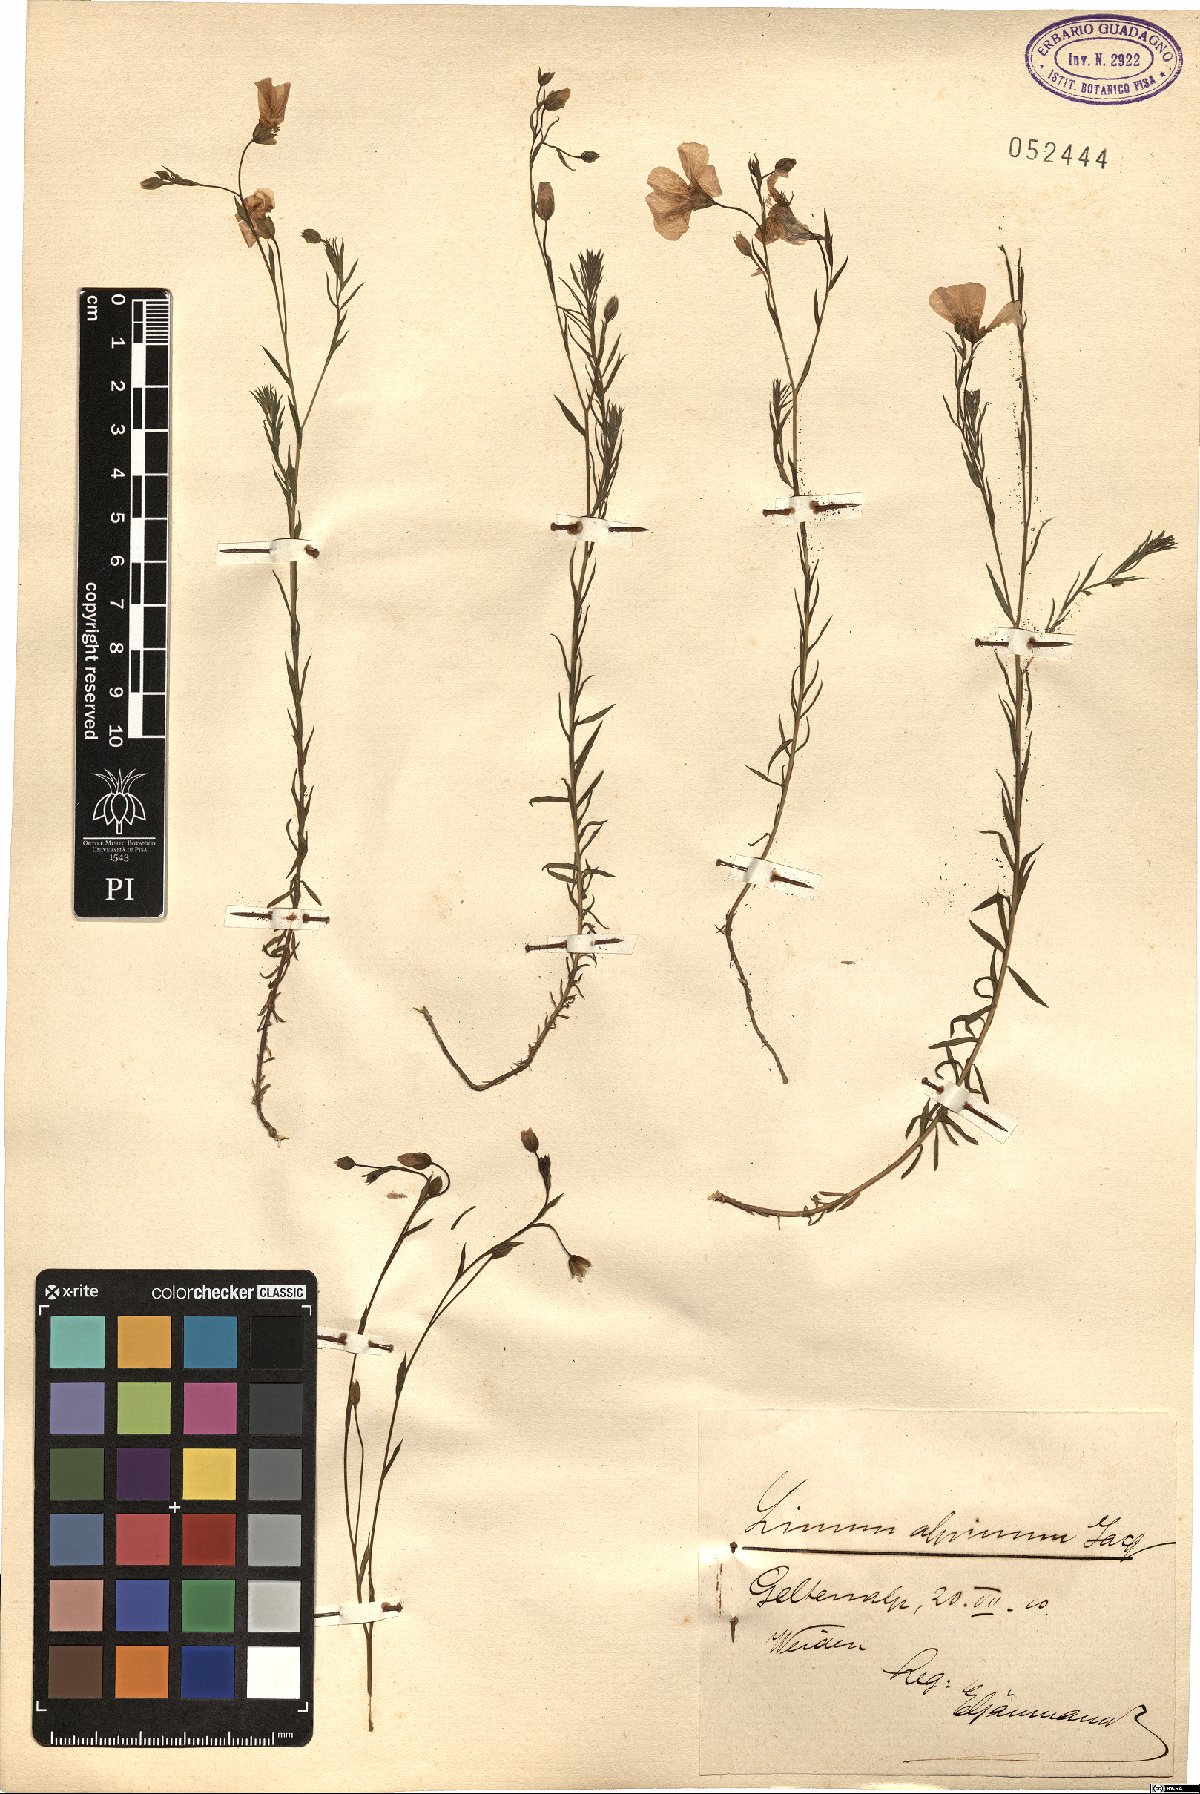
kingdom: Plantae
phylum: Tracheophyta
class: Magnoliopsida
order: Malpighiales
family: Linaceae
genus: Linum
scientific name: Linum alpinum
